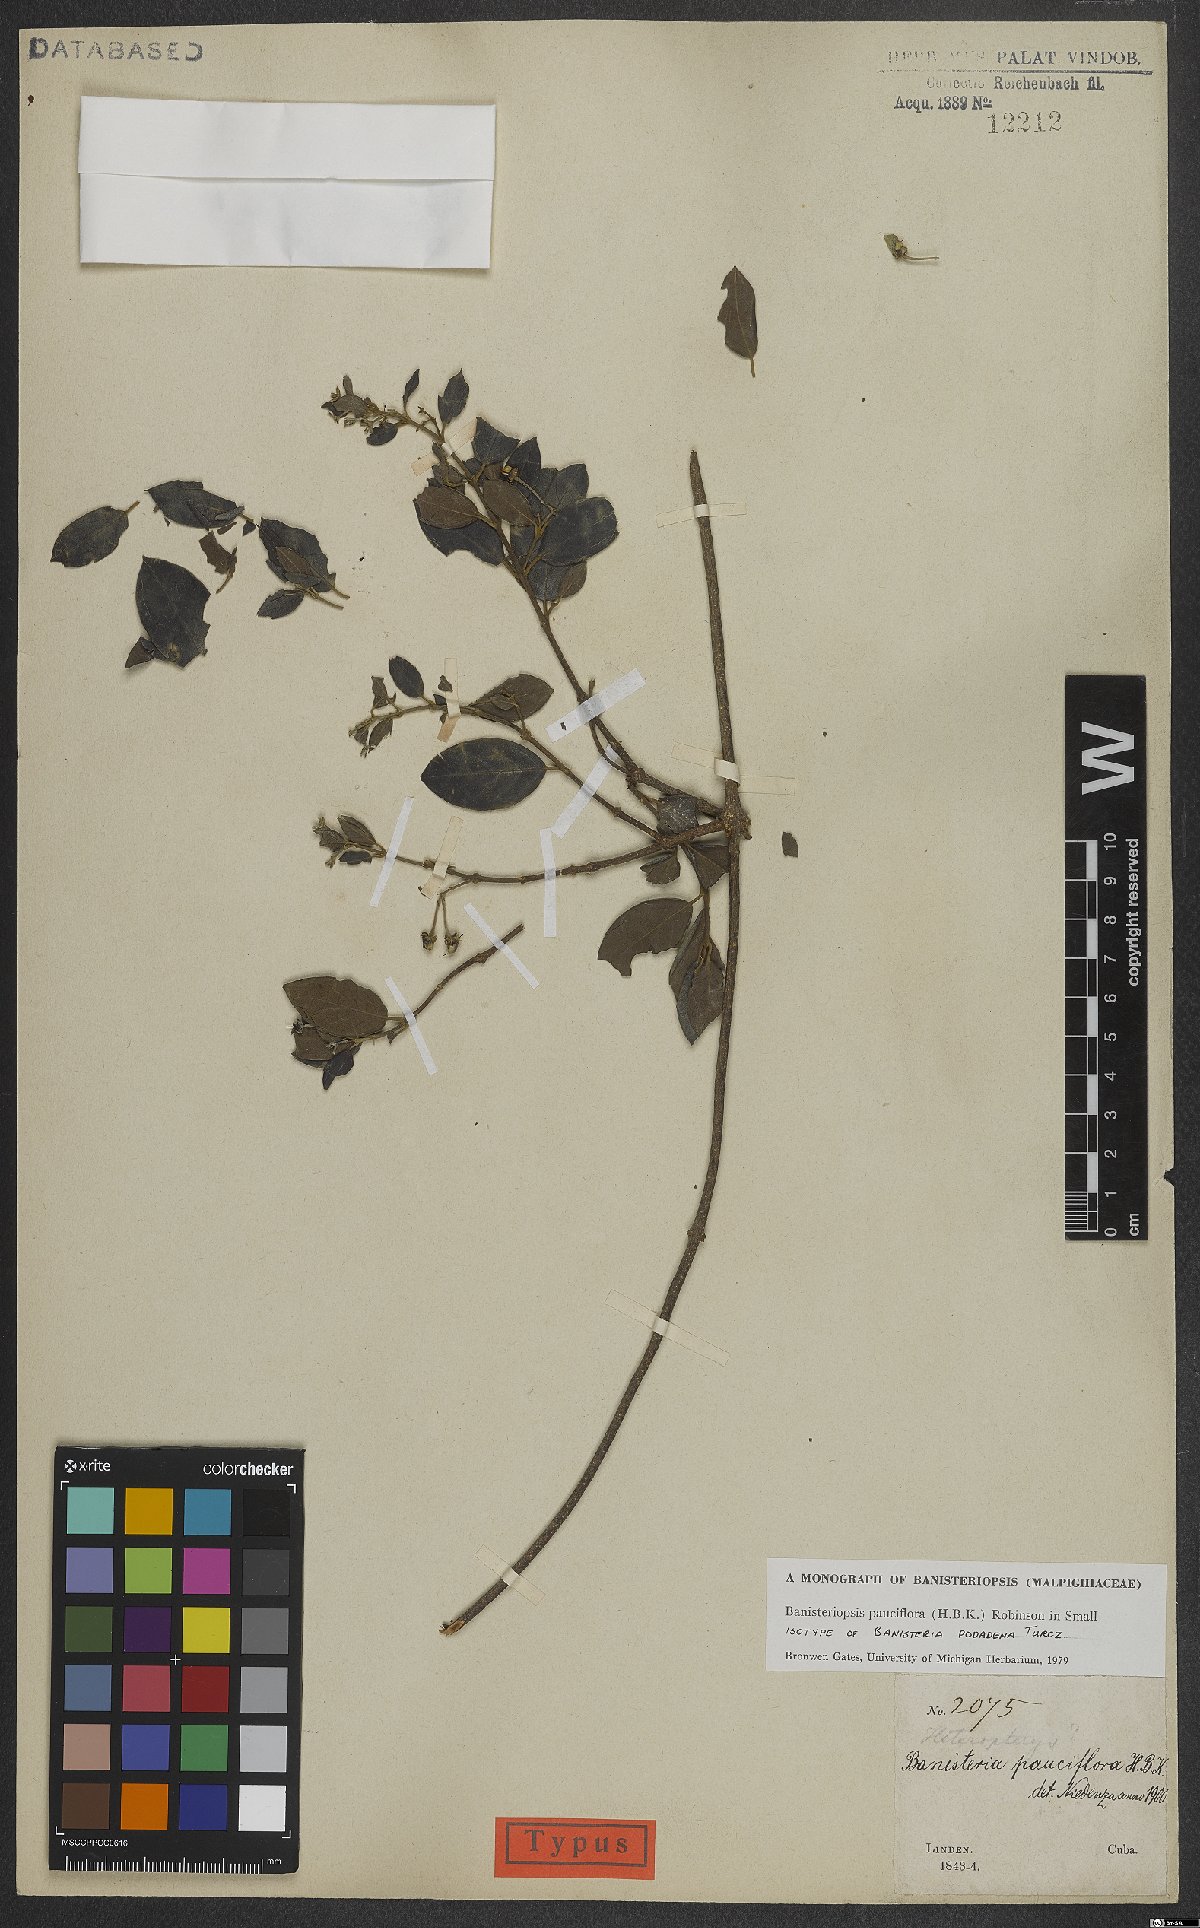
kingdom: Plantae
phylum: Tracheophyta
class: Magnoliopsida
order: Malpighiales
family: Malpighiaceae
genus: Banisteriopsis
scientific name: Banisteriopsis pauciflora
